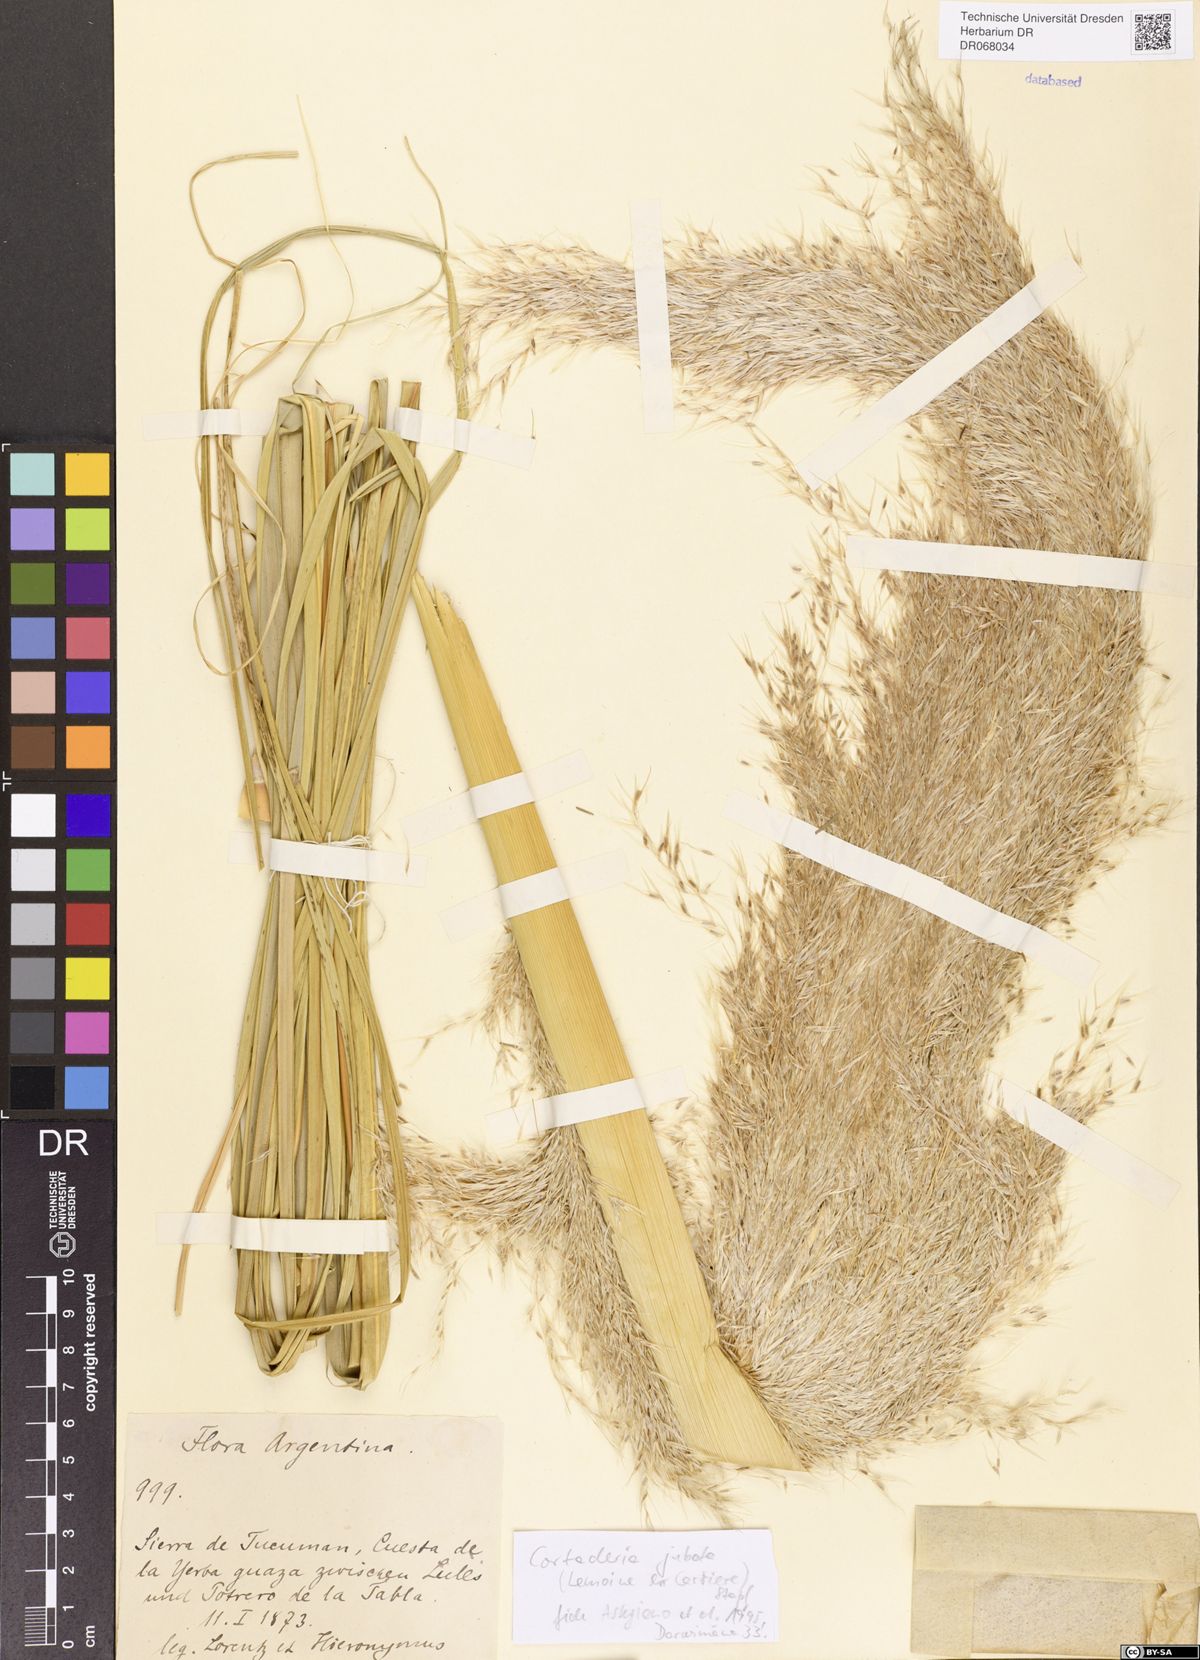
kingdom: Plantae
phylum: Tracheophyta
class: Liliopsida
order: Poales
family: Poaceae
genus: Cortaderia
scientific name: Cortaderia jubata
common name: Purple pampas grass
